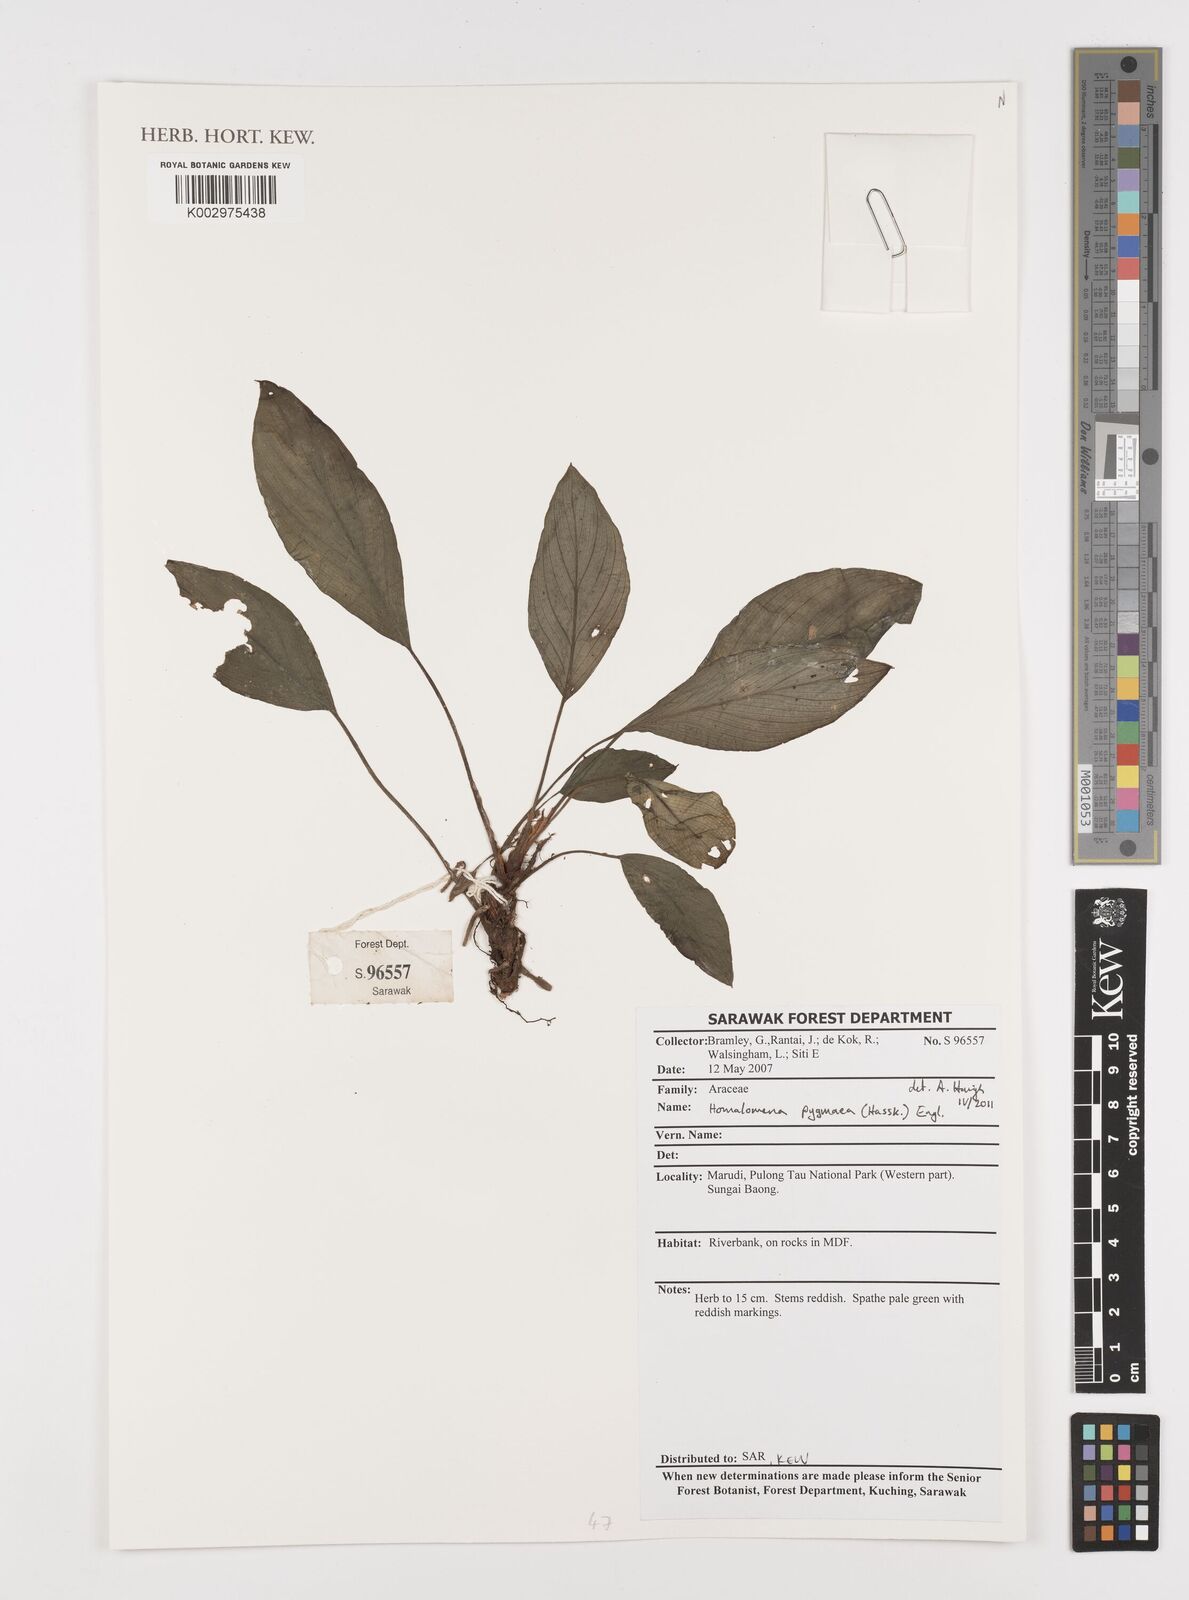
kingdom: Plantae
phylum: Tracheophyta
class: Liliopsida
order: Alismatales
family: Araceae
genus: Homalomena
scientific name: Homalomena humilis
